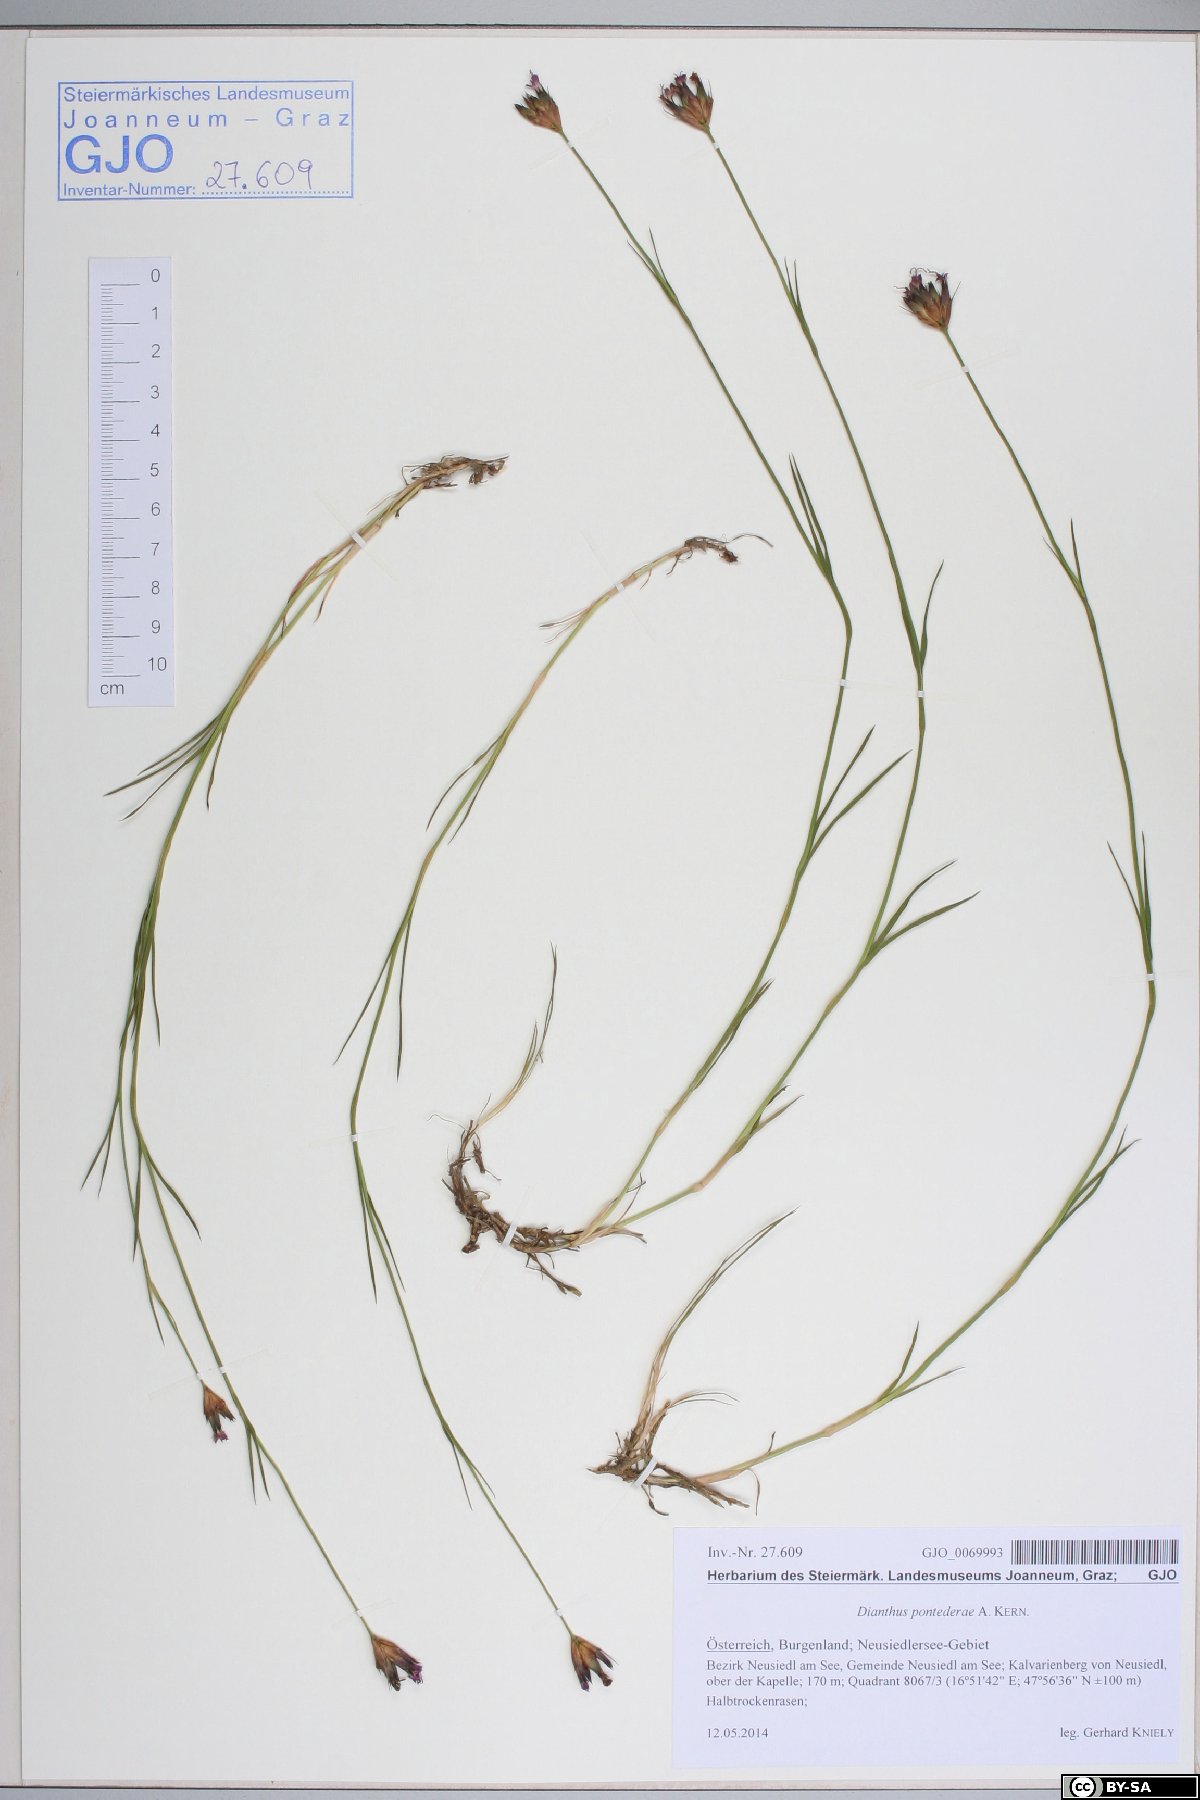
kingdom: Plantae
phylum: Tracheophyta
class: Magnoliopsida
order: Caryophyllales
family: Caryophyllaceae
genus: Dianthus
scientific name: Dianthus pontederae
